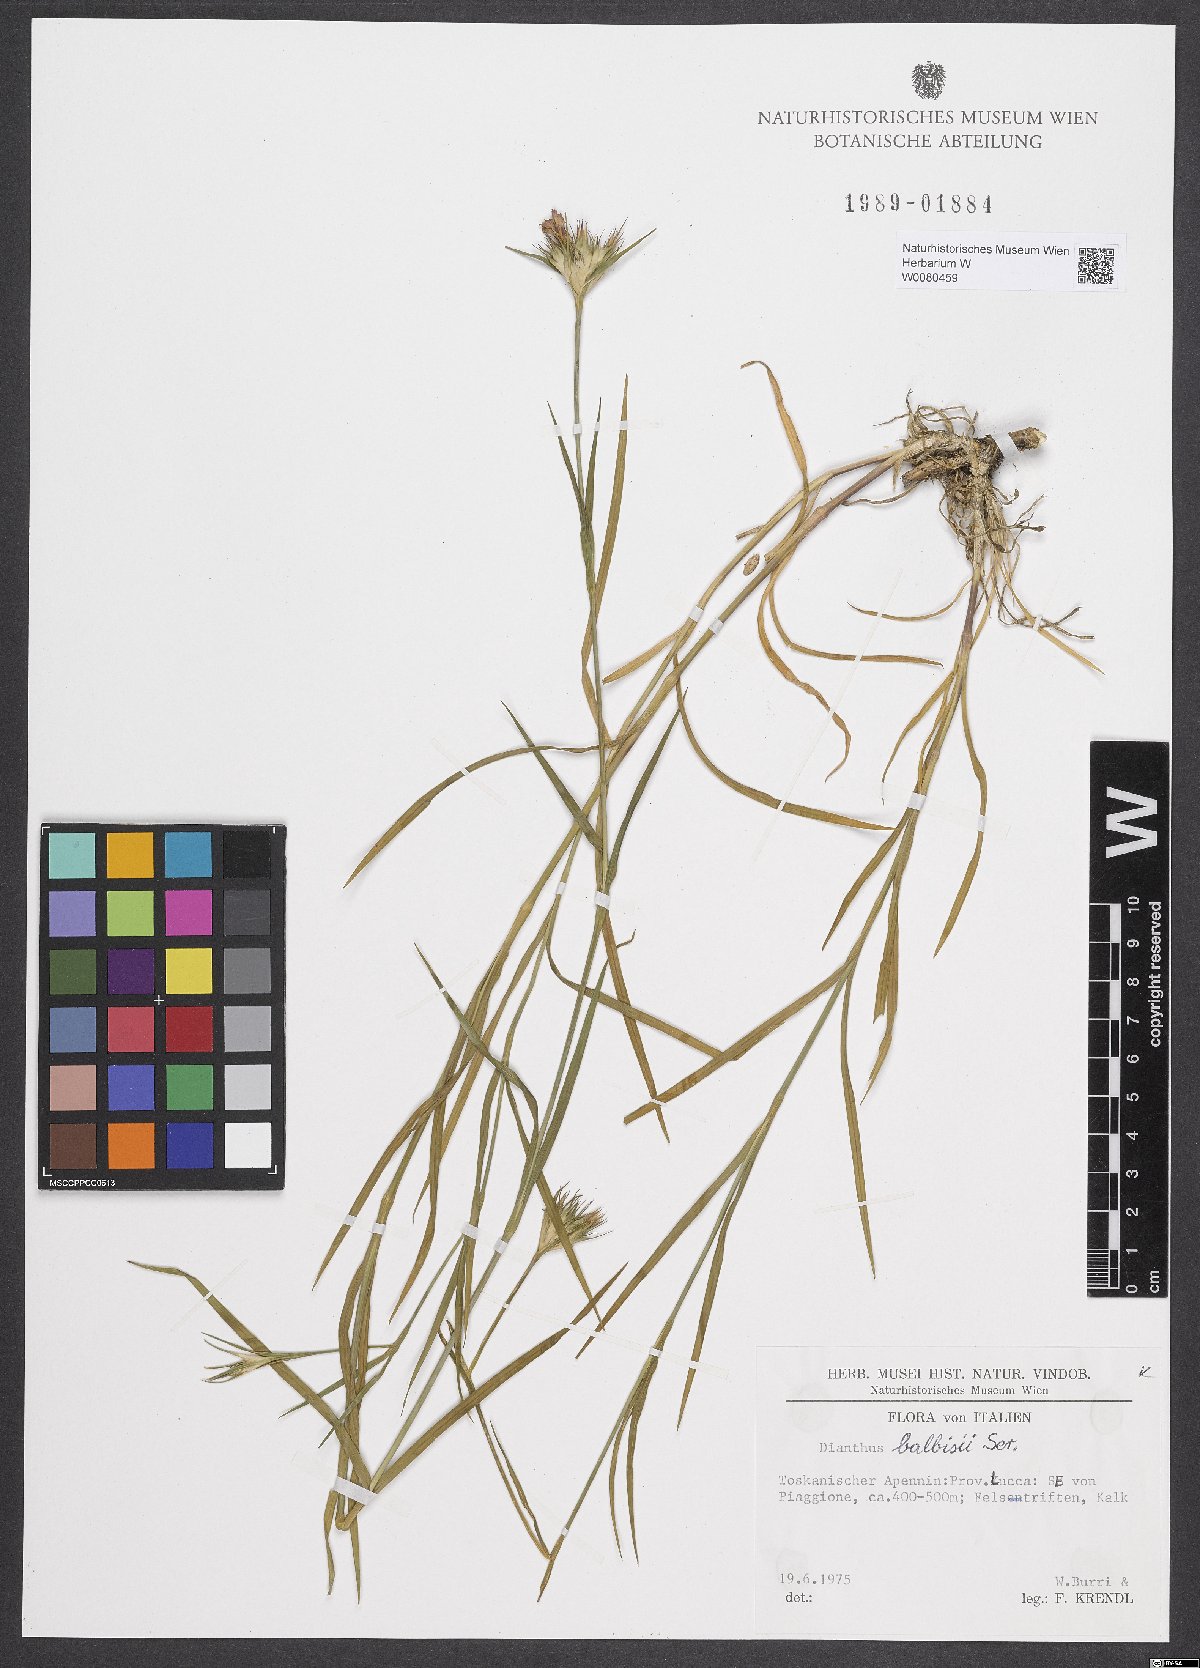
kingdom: Plantae
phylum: Tracheophyta
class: Magnoliopsida
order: Caryophyllales
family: Caryophyllaceae
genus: Dianthus
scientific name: Dianthus balbisii
